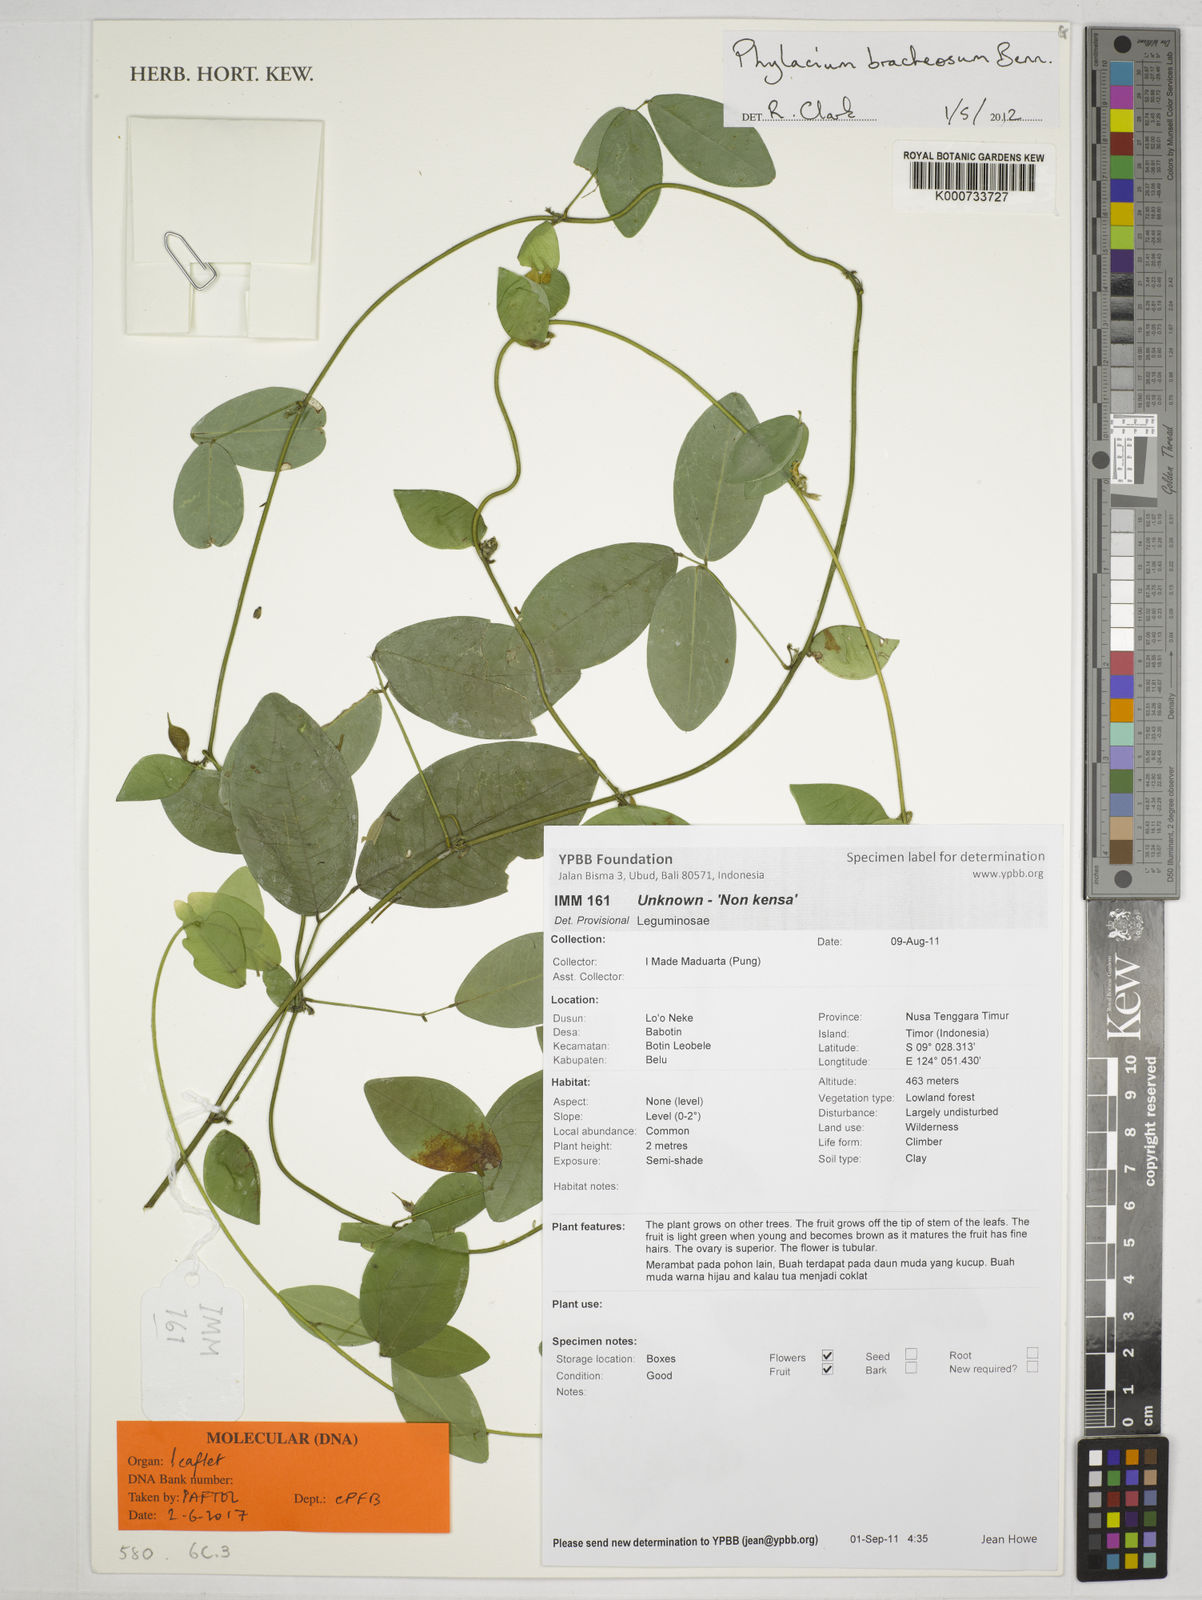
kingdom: Plantae
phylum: Tracheophyta
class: Magnoliopsida
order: Fabales
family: Fabaceae
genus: Phylacium
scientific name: Phylacium bracteosum
